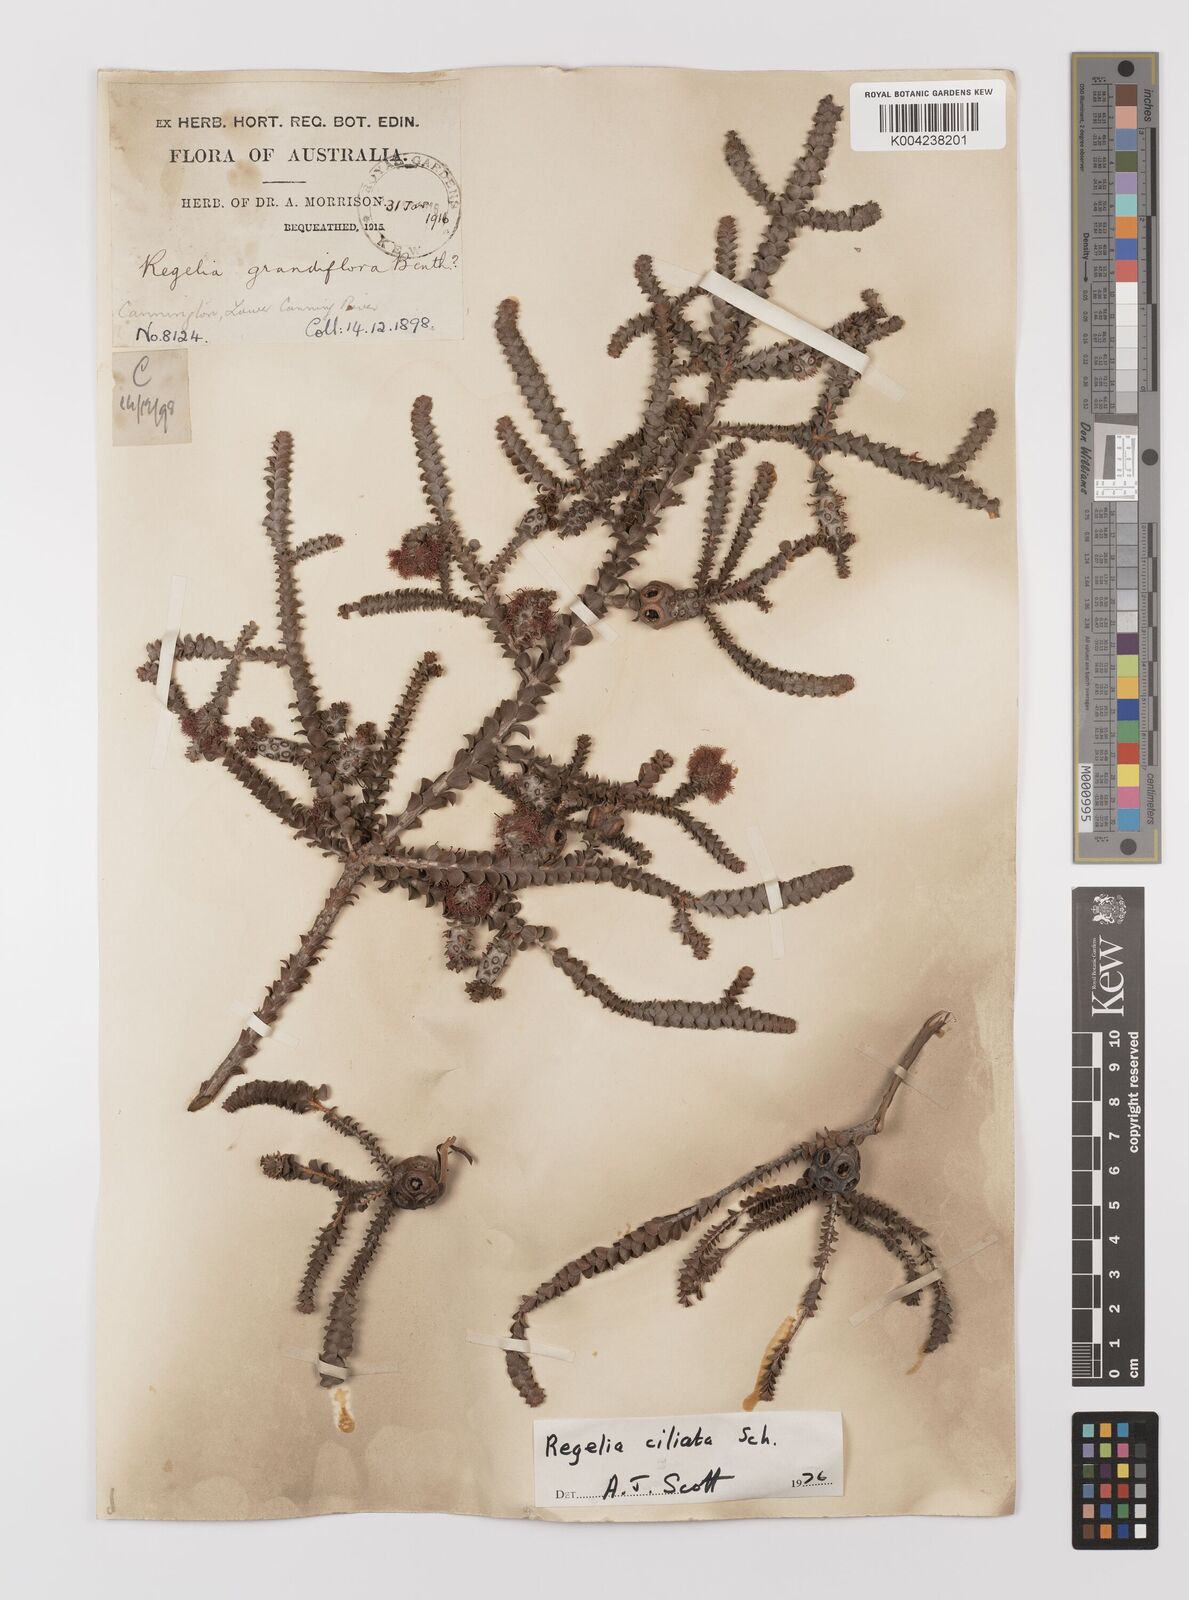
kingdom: Plantae
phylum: Tracheophyta
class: Magnoliopsida
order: Myrtales
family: Myrtaceae
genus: Melaleuca
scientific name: Melaleuca crossota
